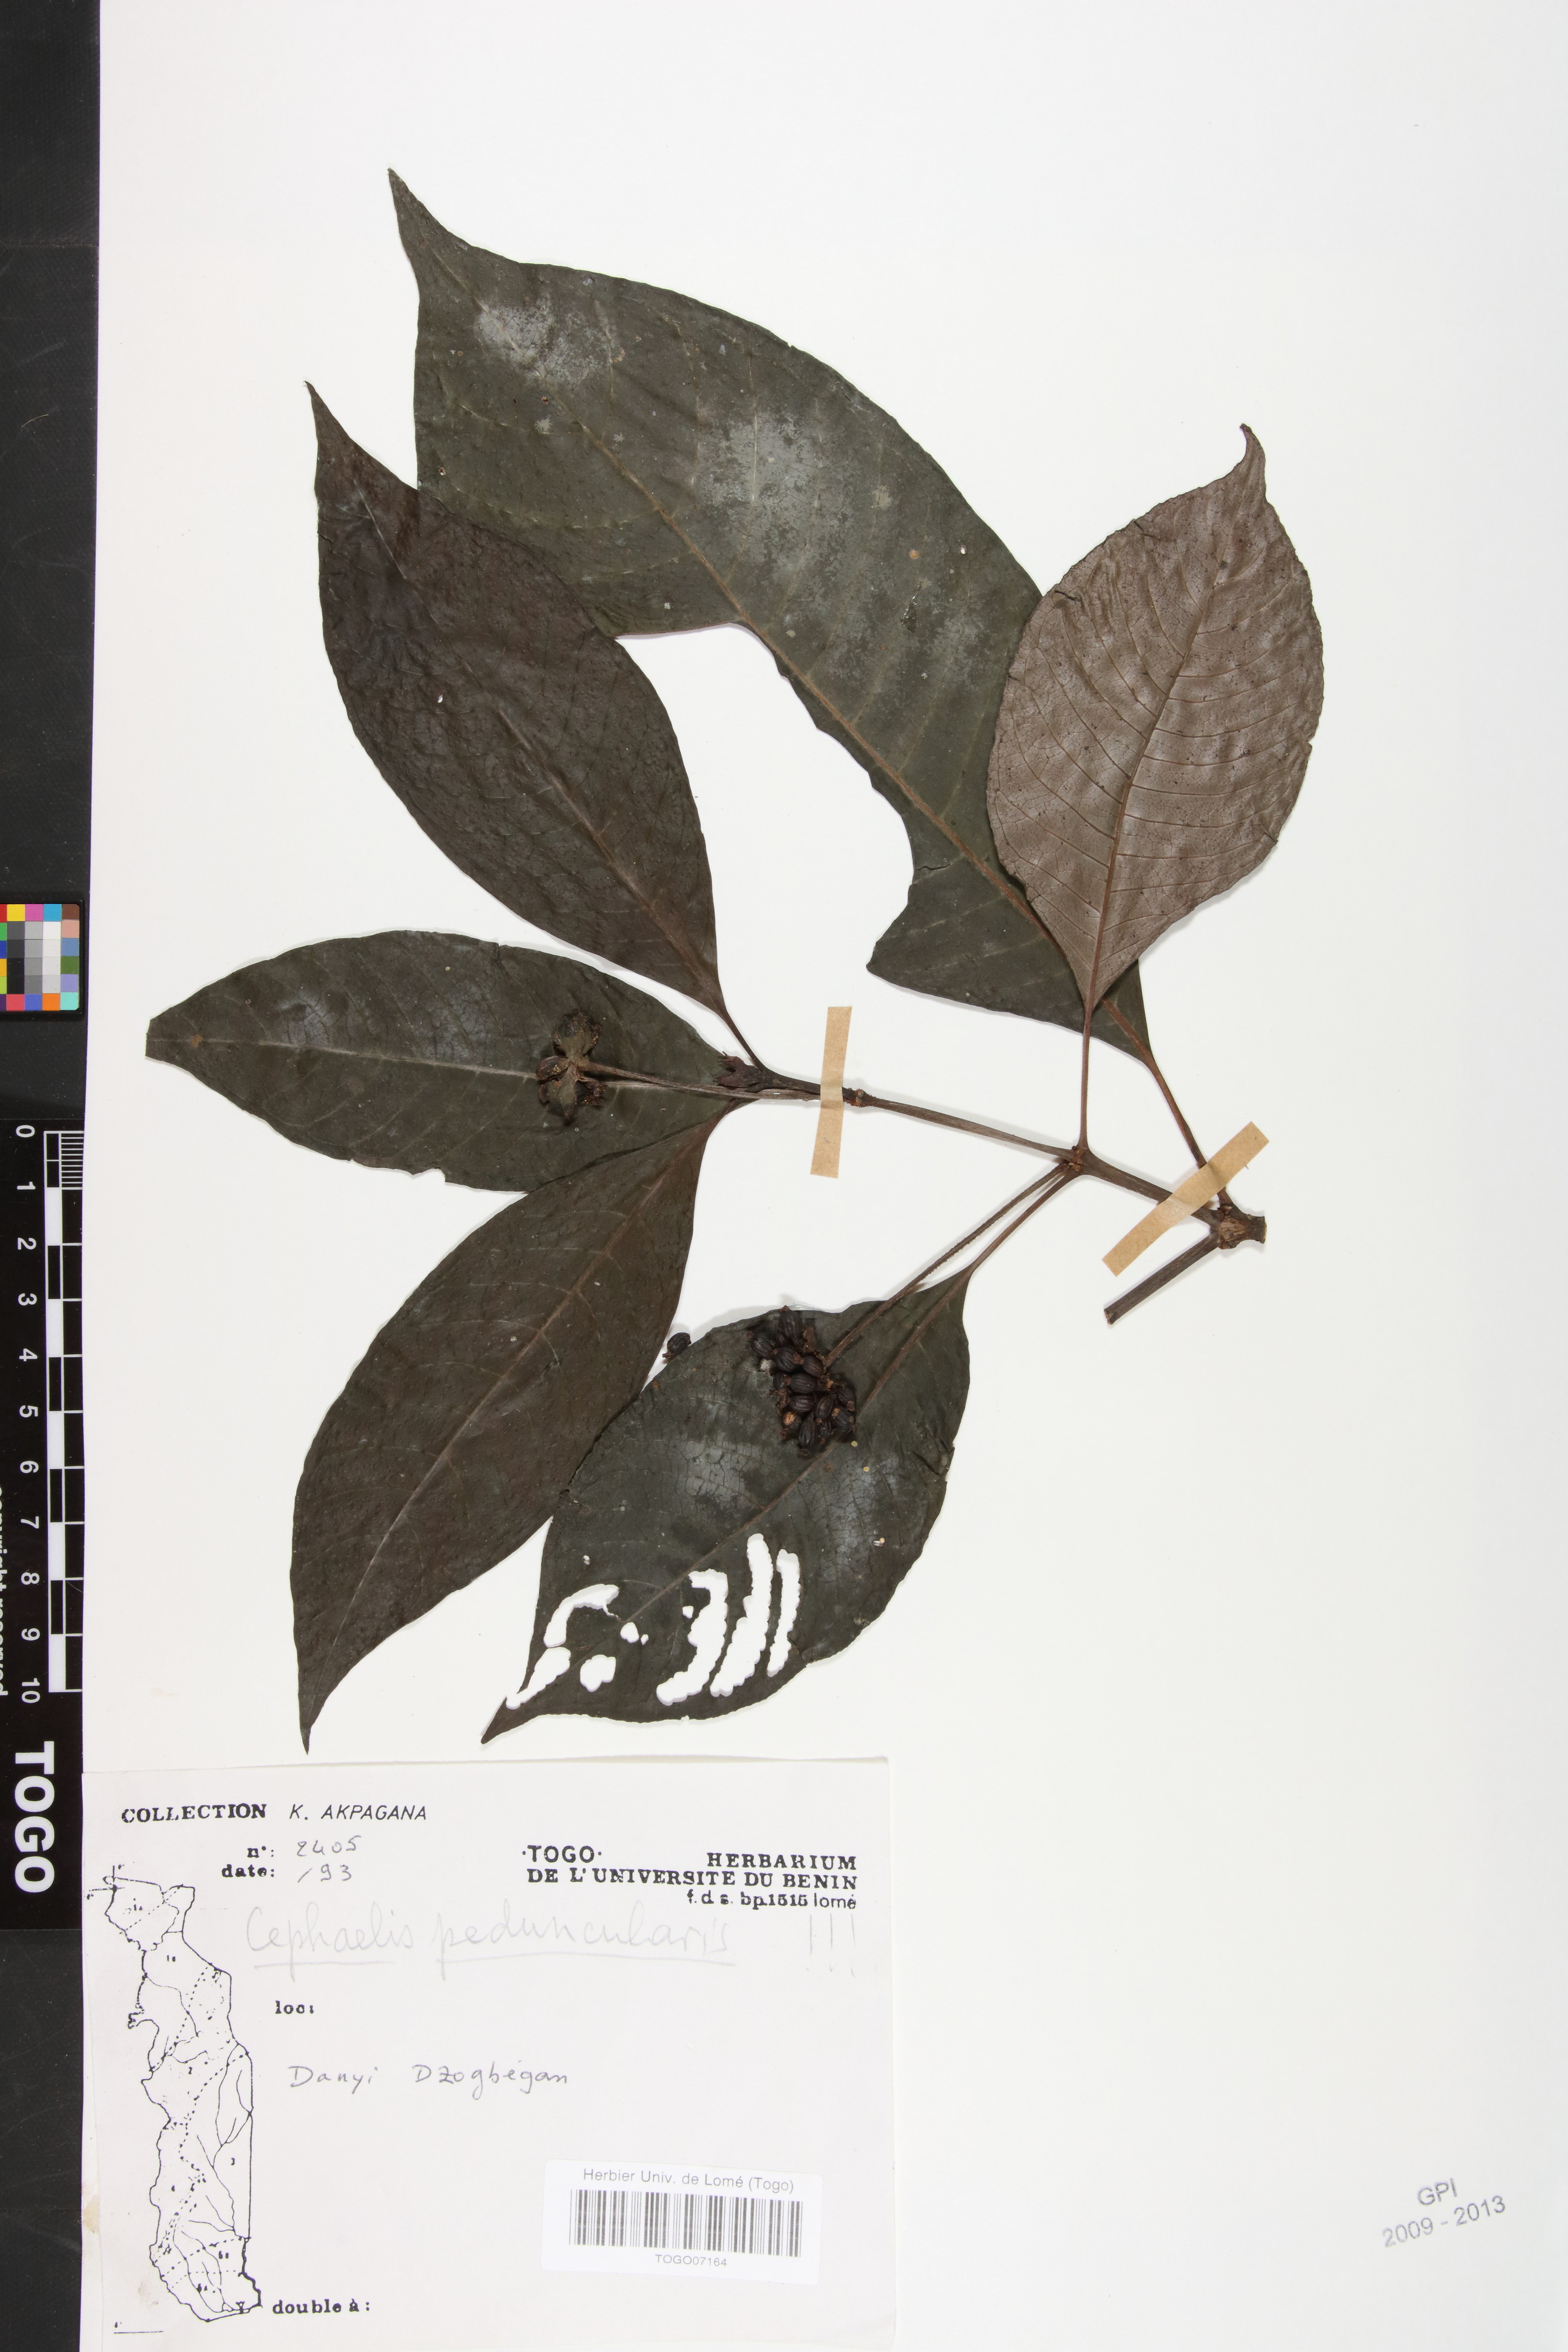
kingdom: Plantae
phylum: Tracheophyta
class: Magnoliopsida
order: Gentianales
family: Rubiaceae
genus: Psychotria
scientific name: Psychotria peduncularis
